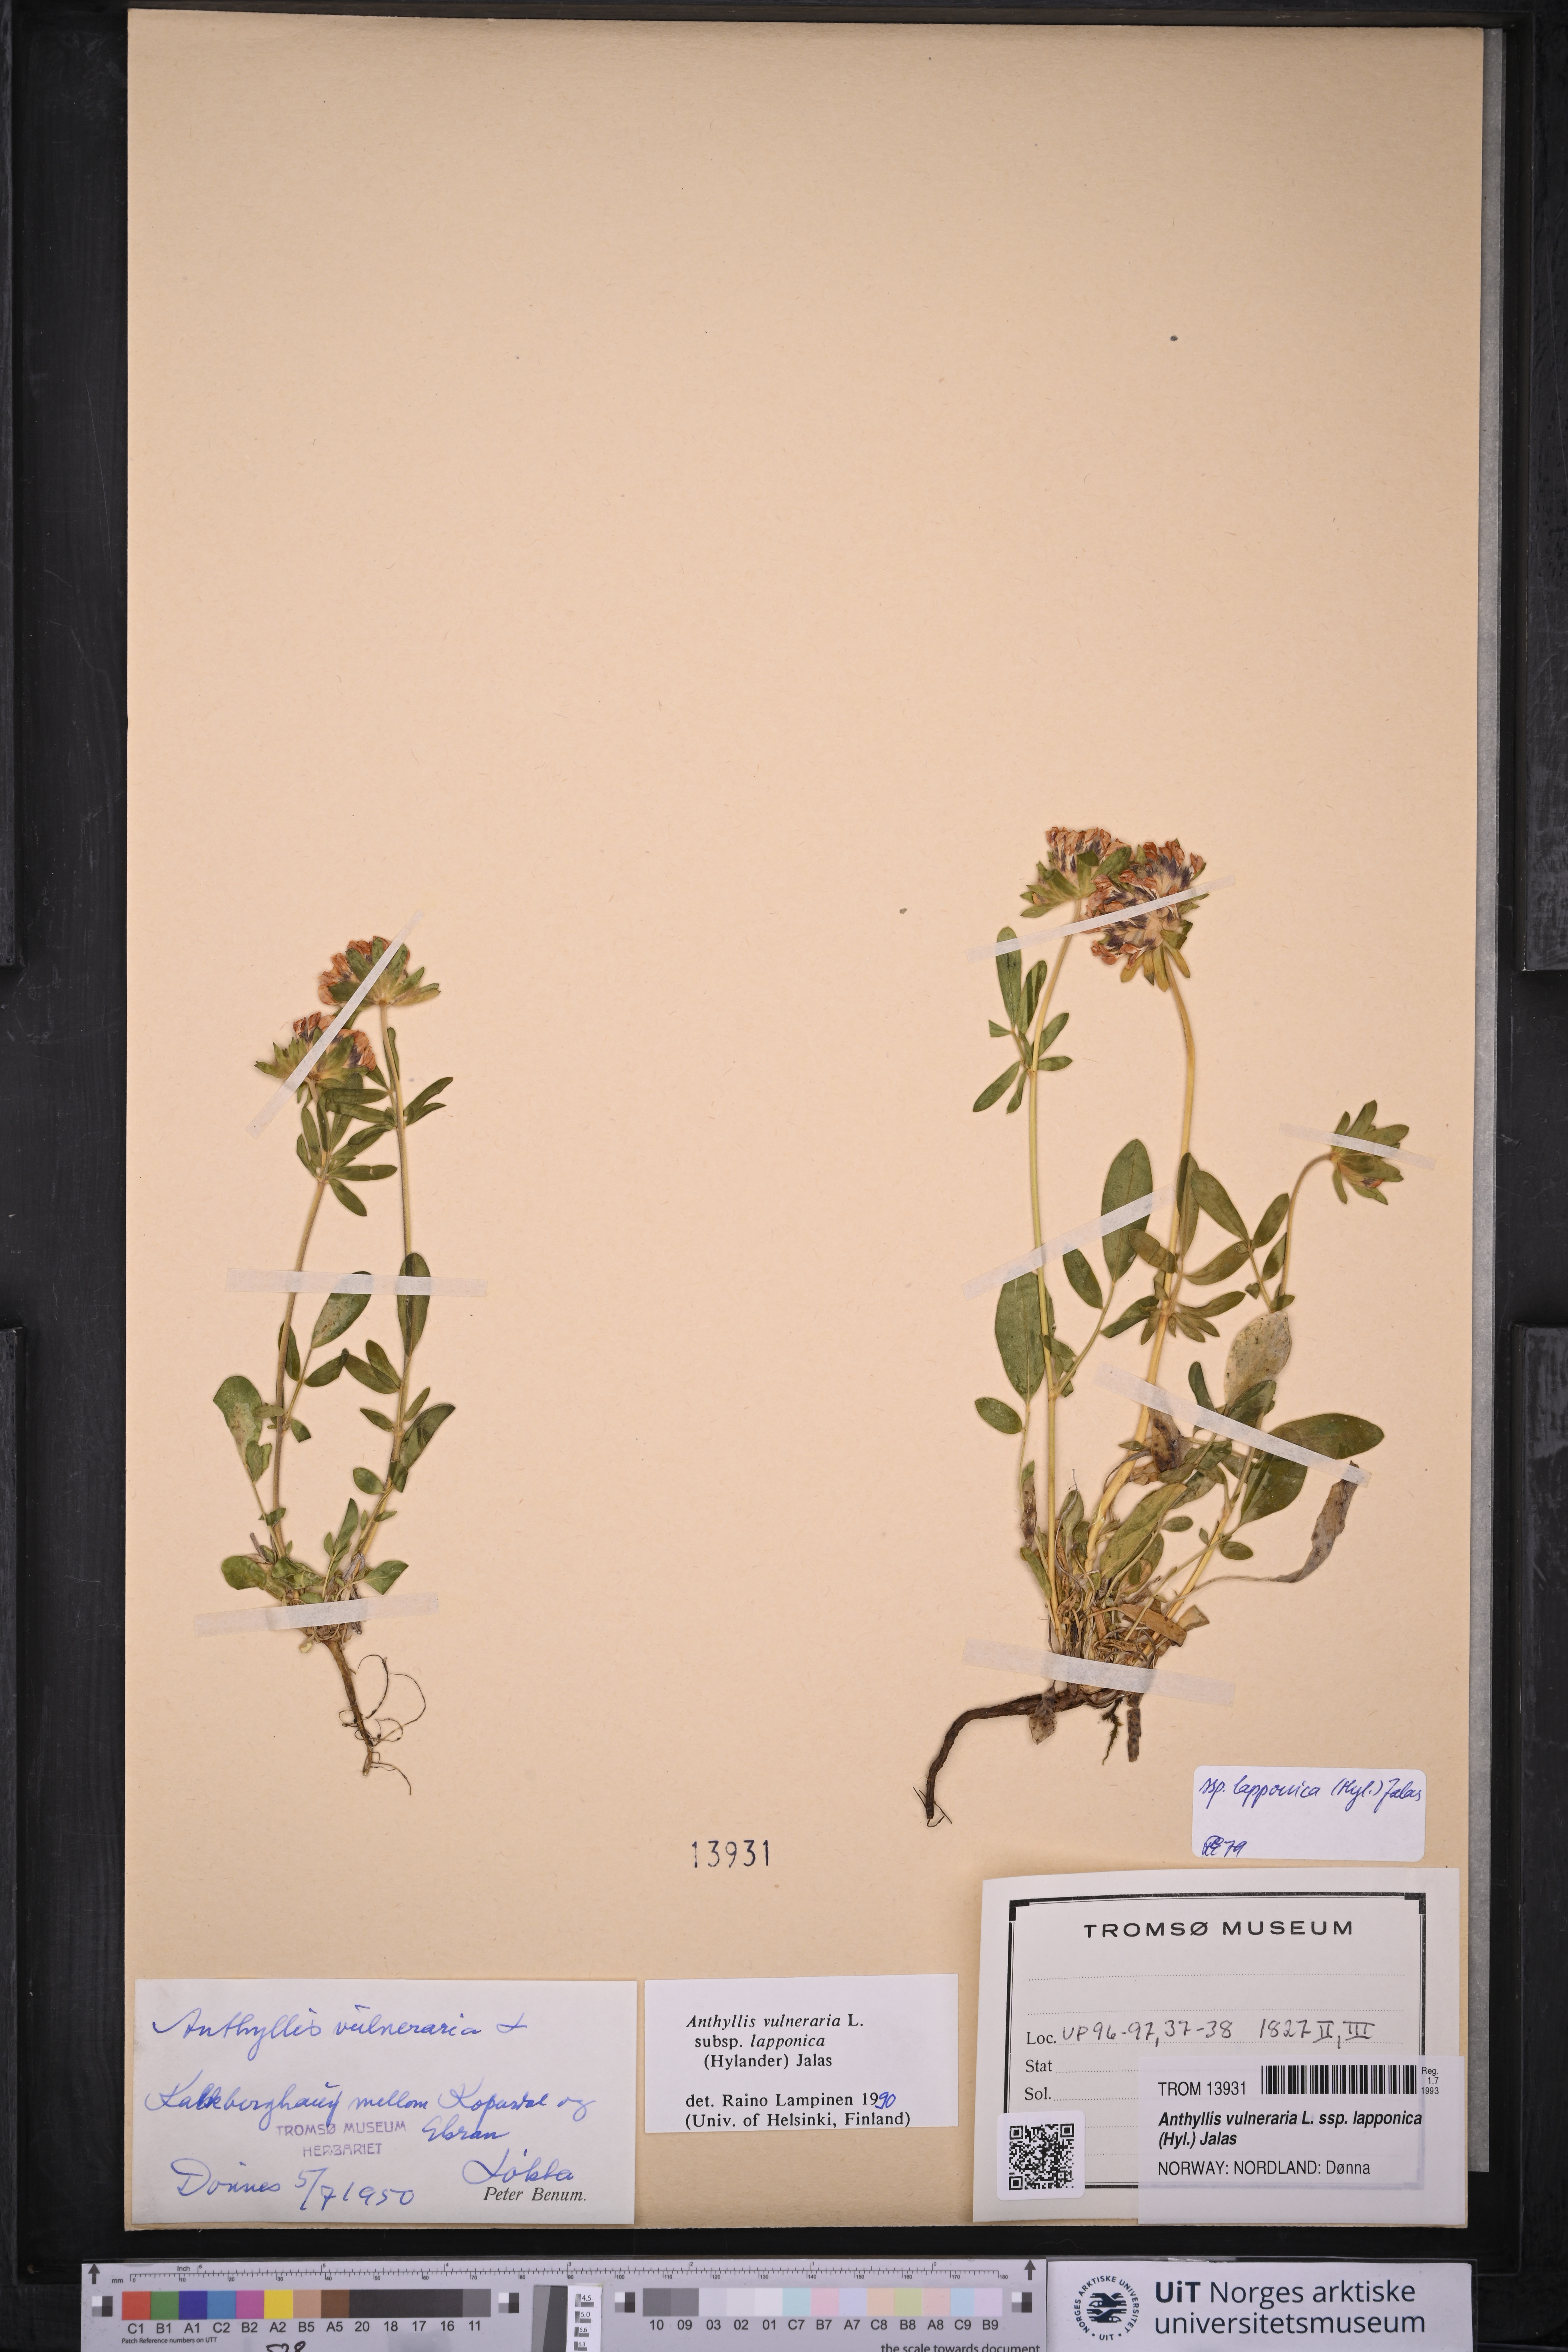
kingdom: Plantae
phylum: Tracheophyta
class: Magnoliopsida
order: Fabales
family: Fabaceae
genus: Anthyllis
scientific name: Anthyllis vulneraria
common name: Kidney vetch
